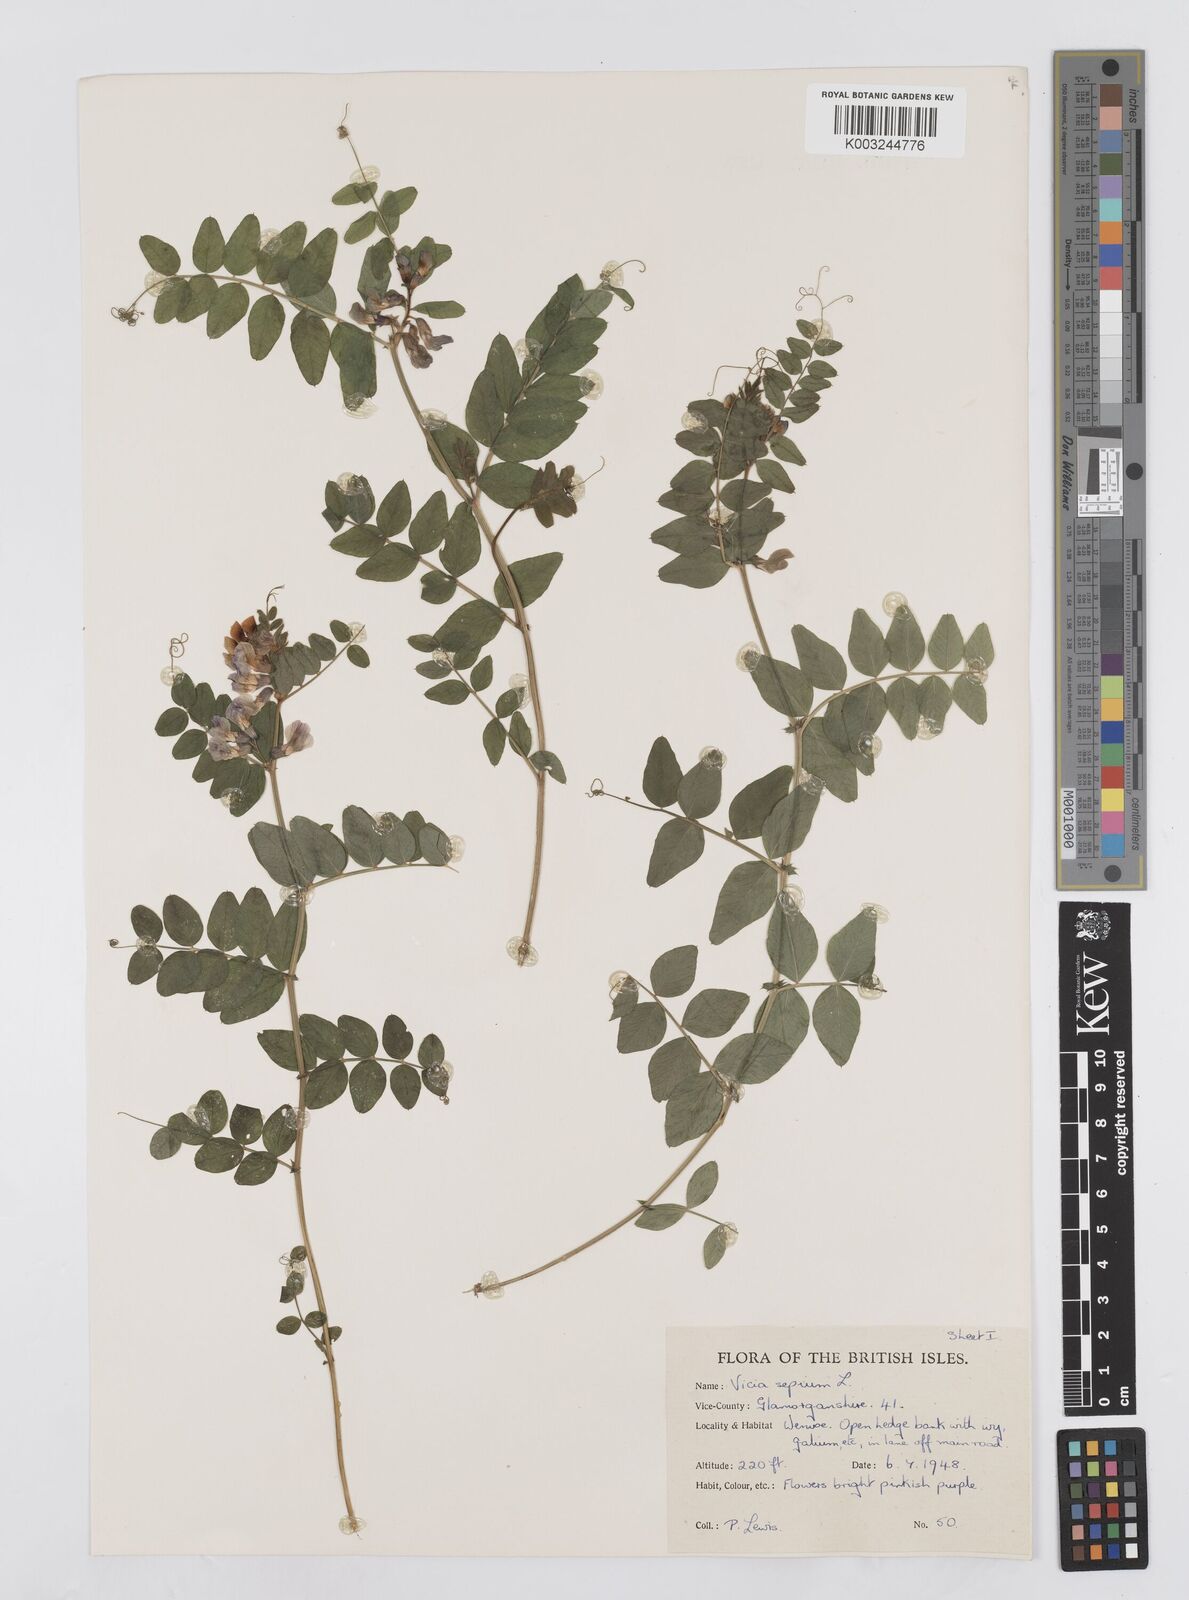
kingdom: Plantae
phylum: Tracheophyta
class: Magnoliopsida
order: Fabales
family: Fabaceae
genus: Vicia
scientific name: Vicia sepium
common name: Bush vetch
